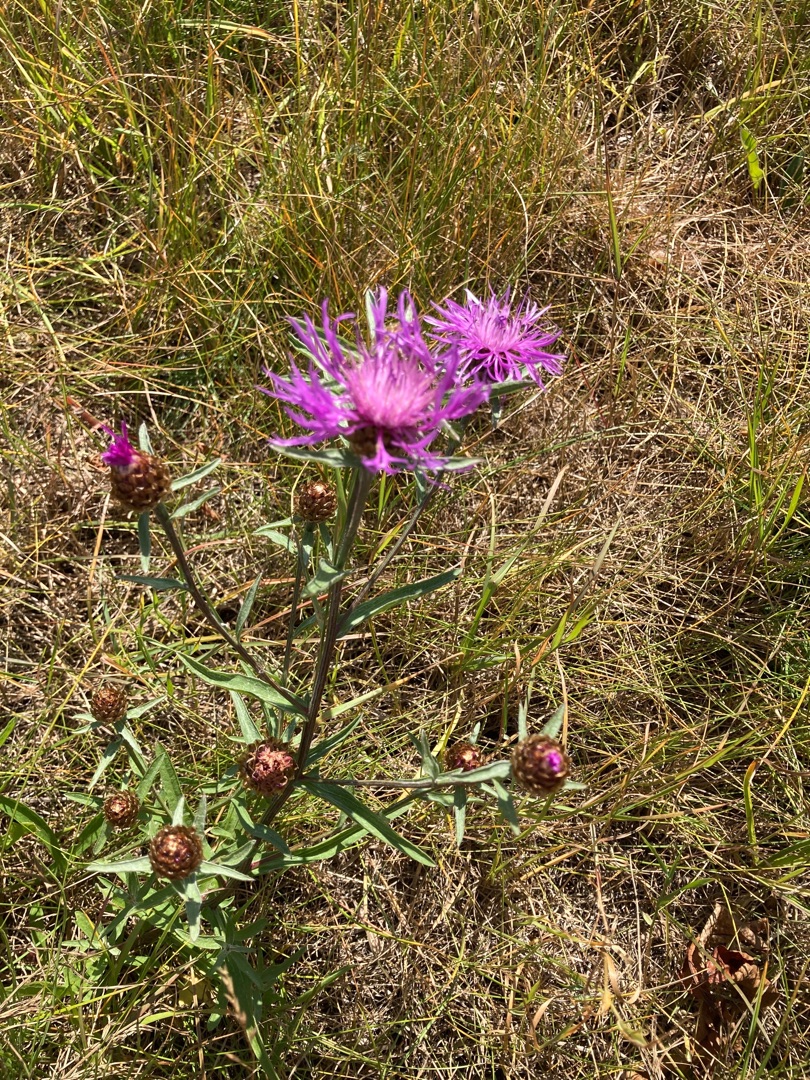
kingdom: Plantae
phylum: Tracheophyta
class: Magnoliopsida
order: Asterales
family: Asteraceae
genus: Centaurea
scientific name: Centaurea jacea
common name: Almindelig knopurt
